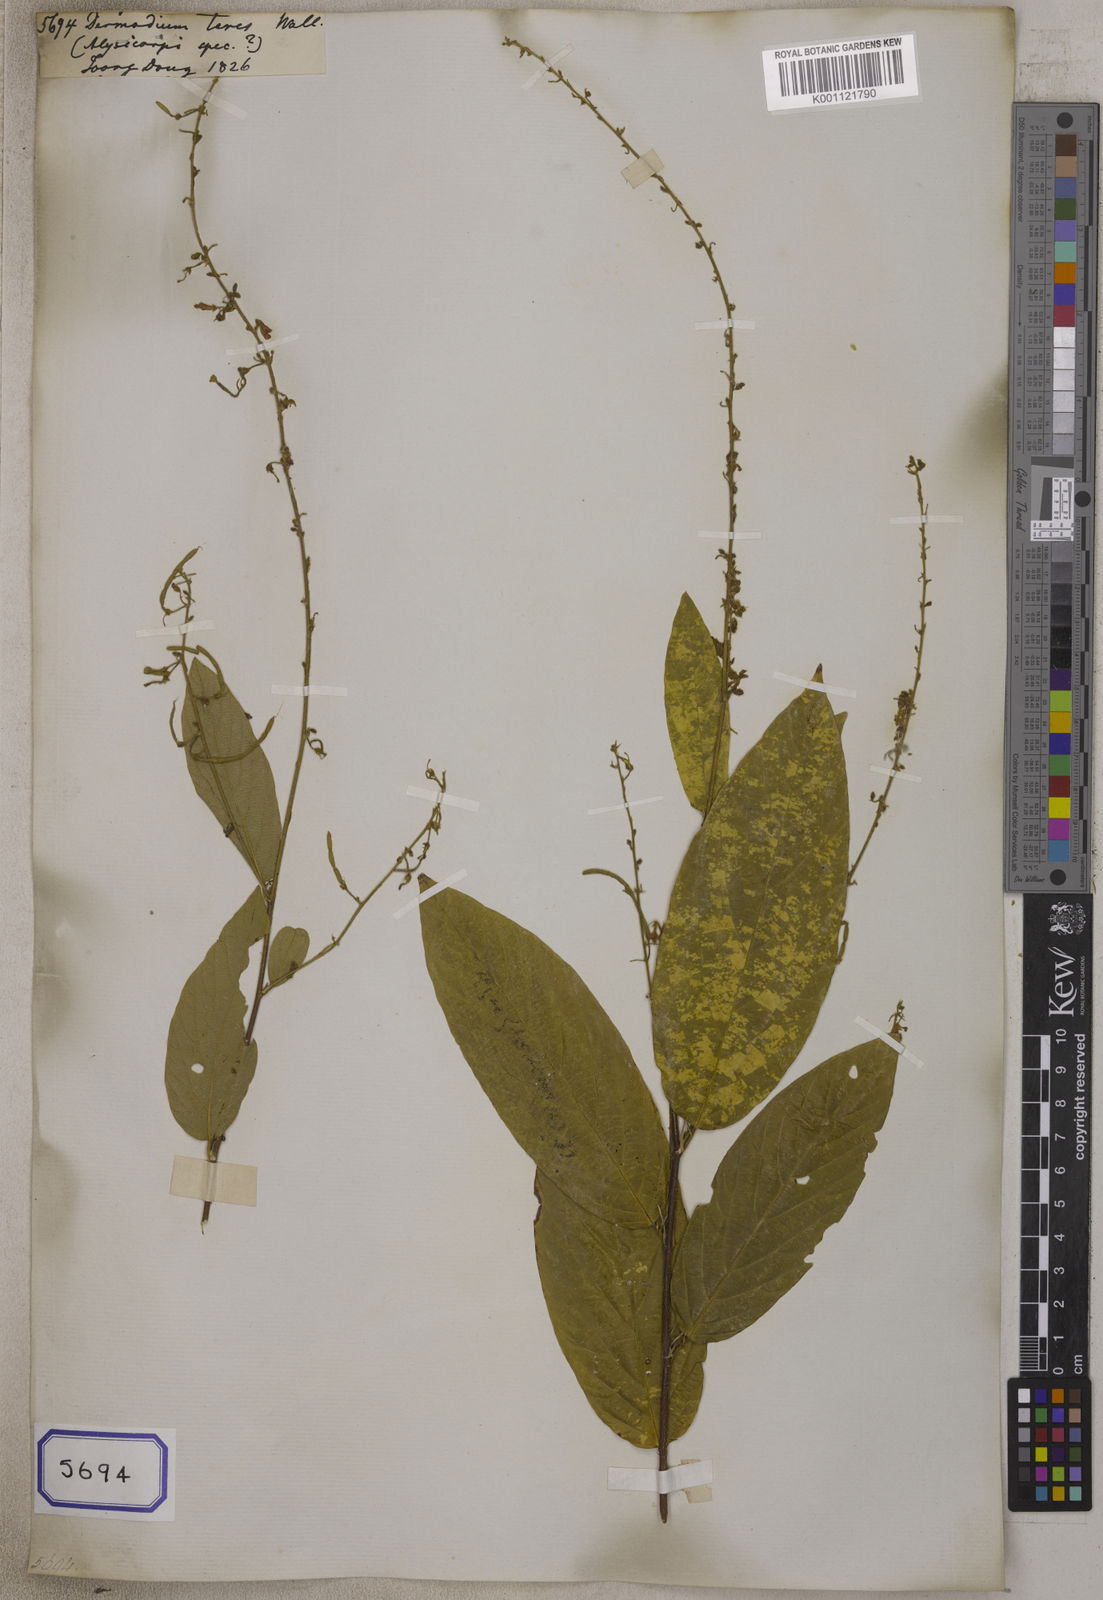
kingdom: Plantae
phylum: Tracheophyta
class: Magnoliopsida
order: Fabales
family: Fabaceae
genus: Sohmaea
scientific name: Sohmaea teres
